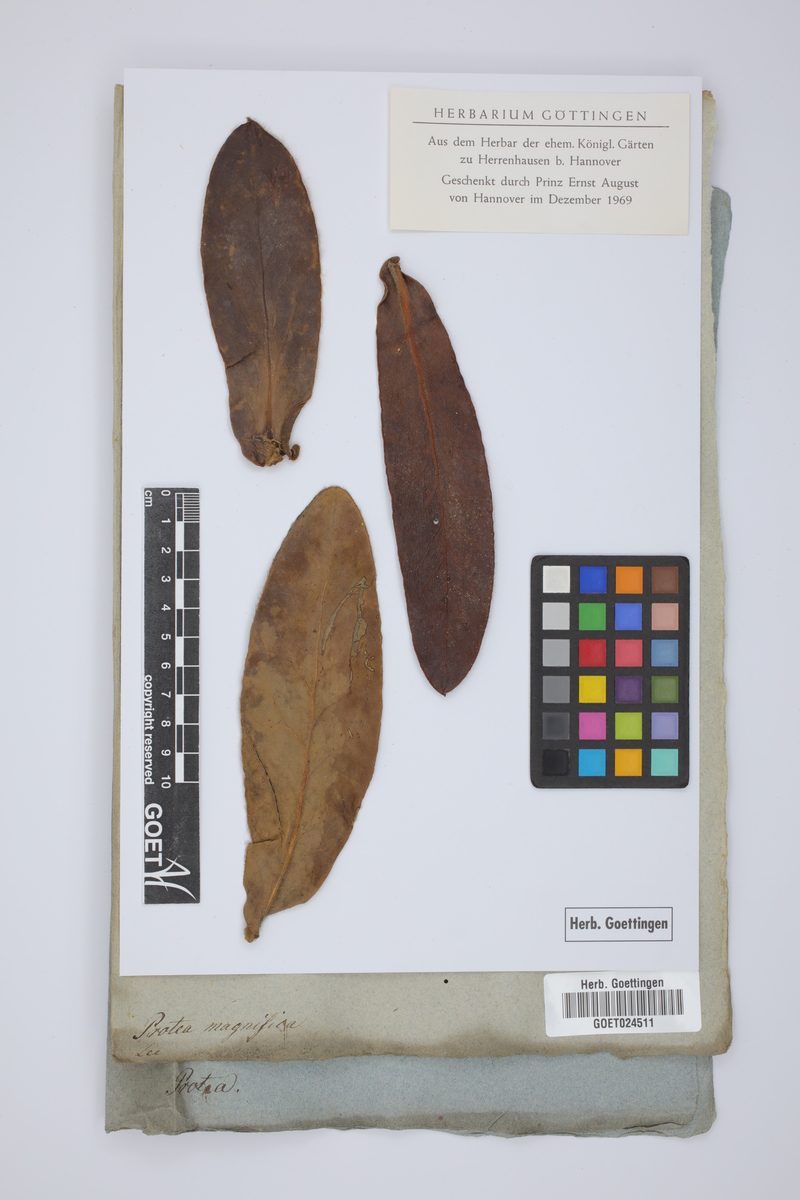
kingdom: Plantae
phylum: Tracheophyta
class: Magnoliopsida
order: Proteales
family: Proteaceae
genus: Protea
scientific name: Protea magnifica
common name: Bearded sugarbush
